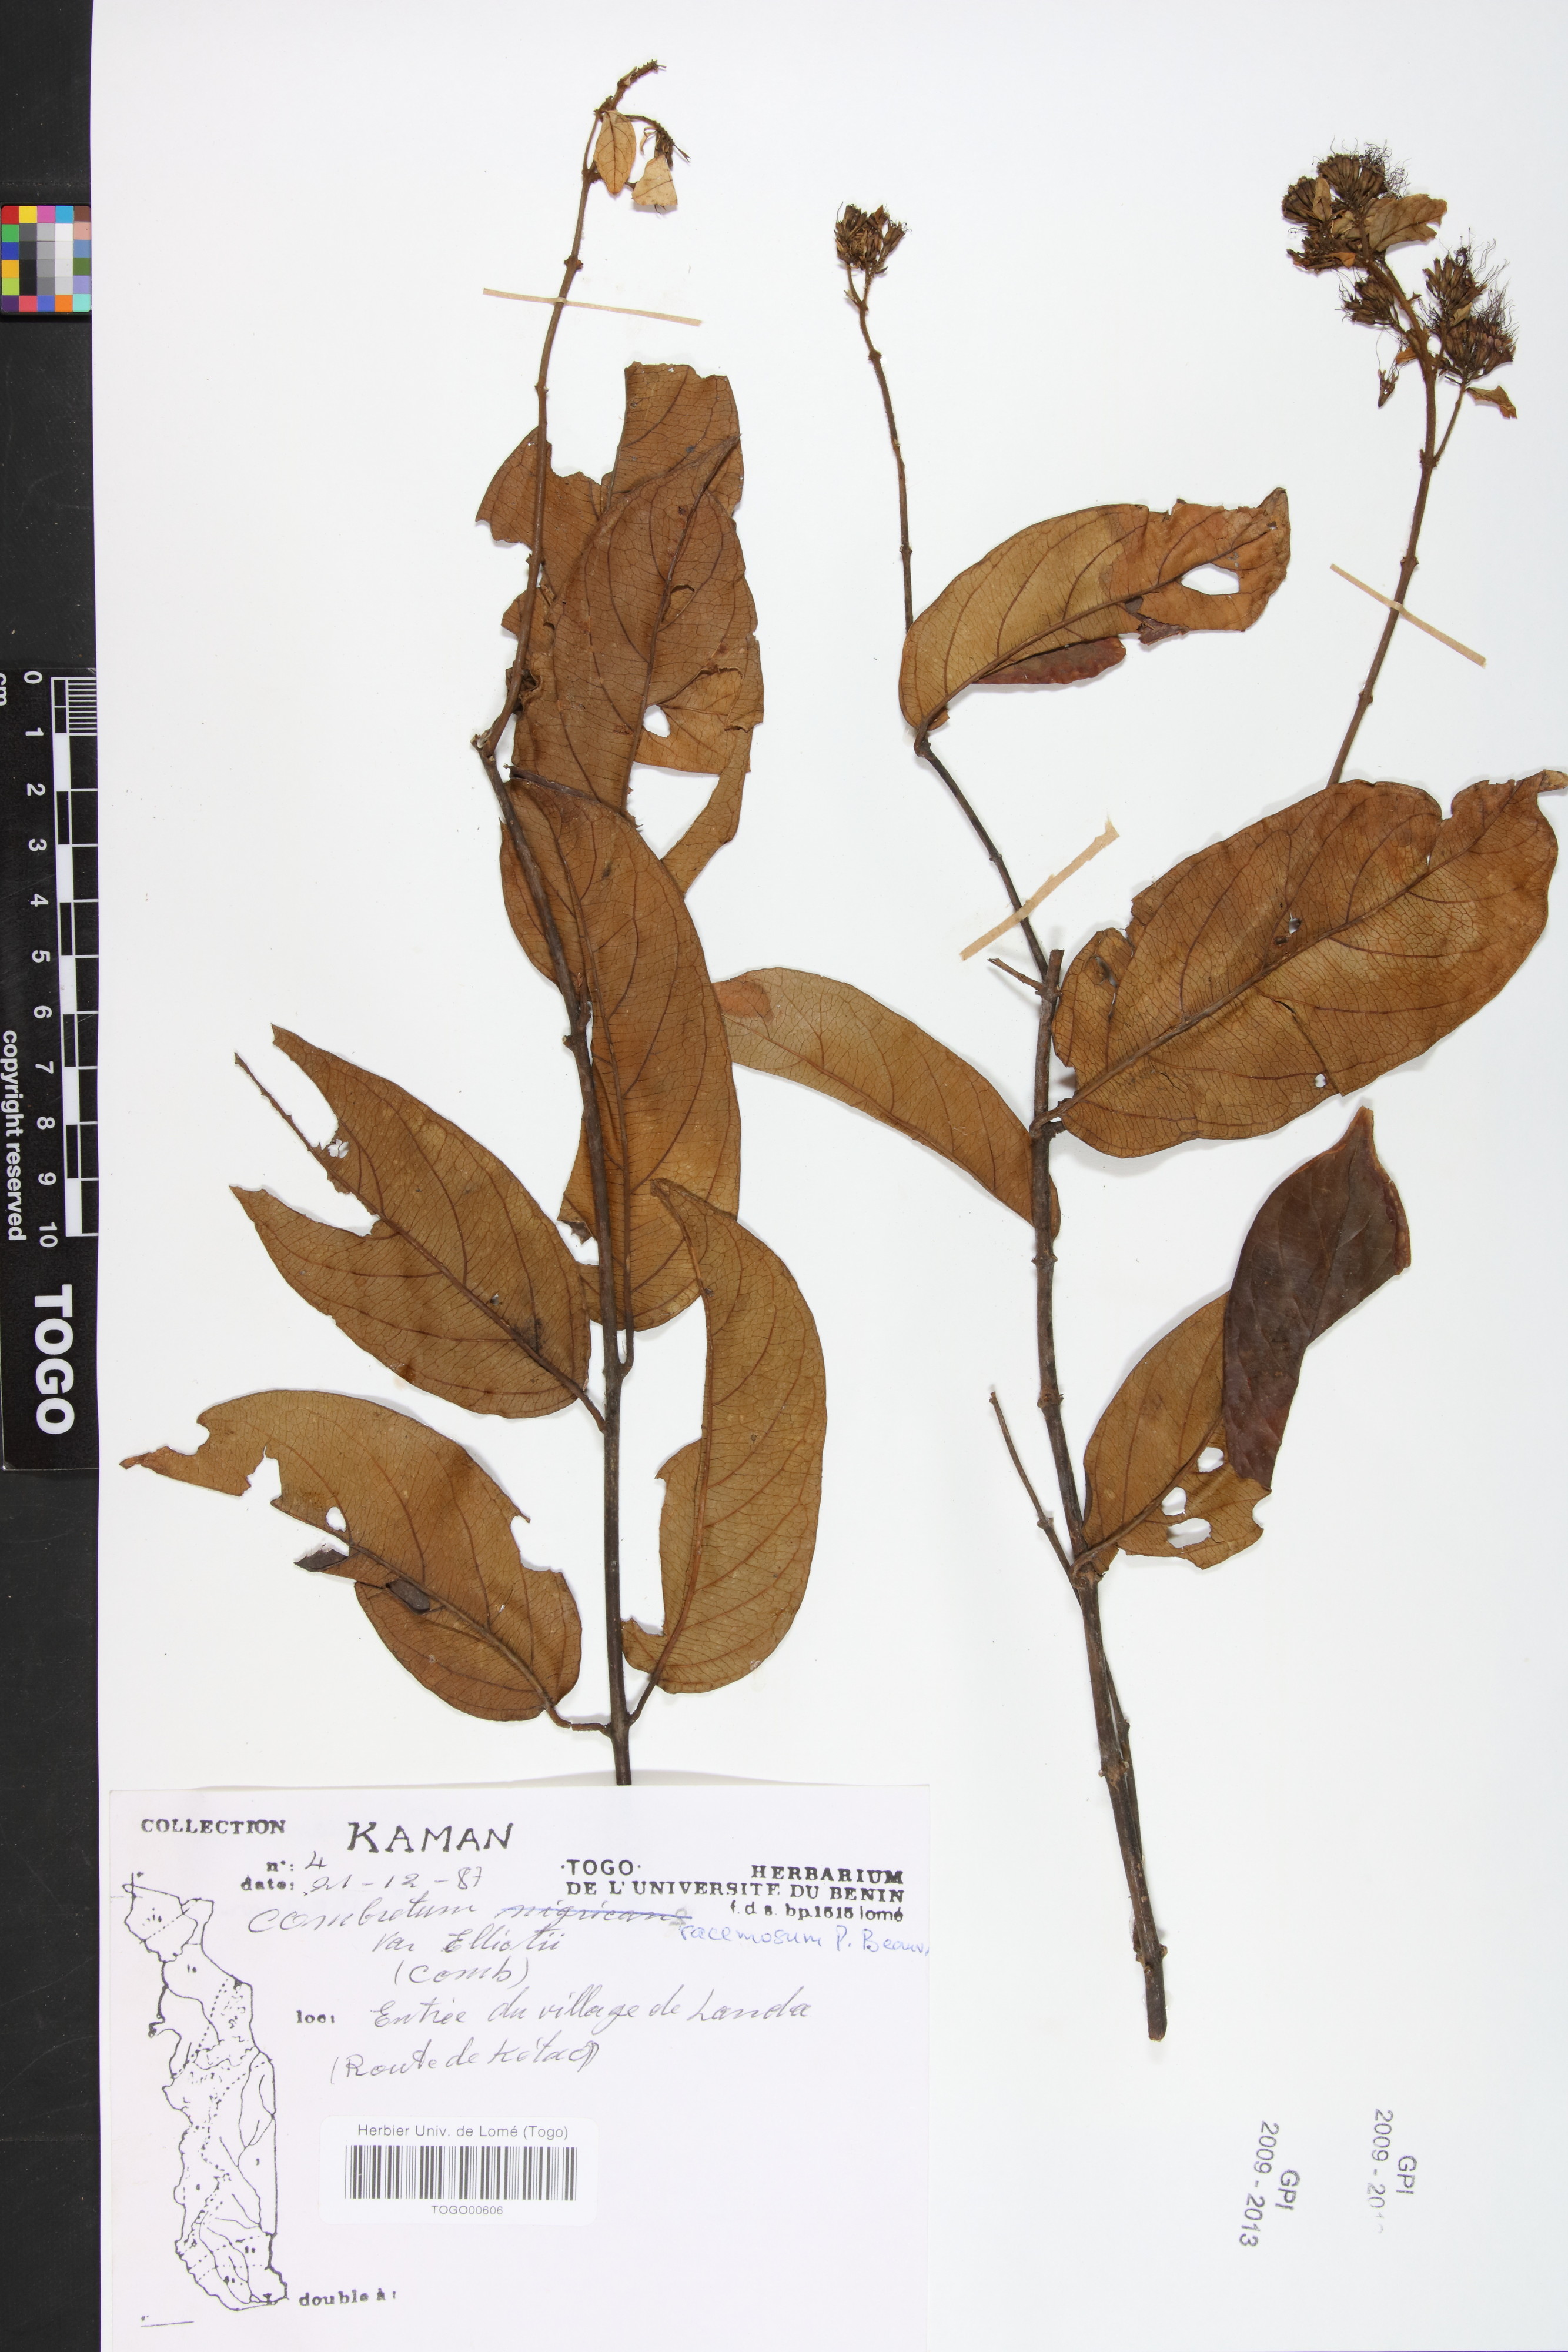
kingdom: Plantae
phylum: Tracheophyta
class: Magnoliopsida
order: Myrtales
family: Combretaceae
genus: Combretum
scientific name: Combretum nigricans
